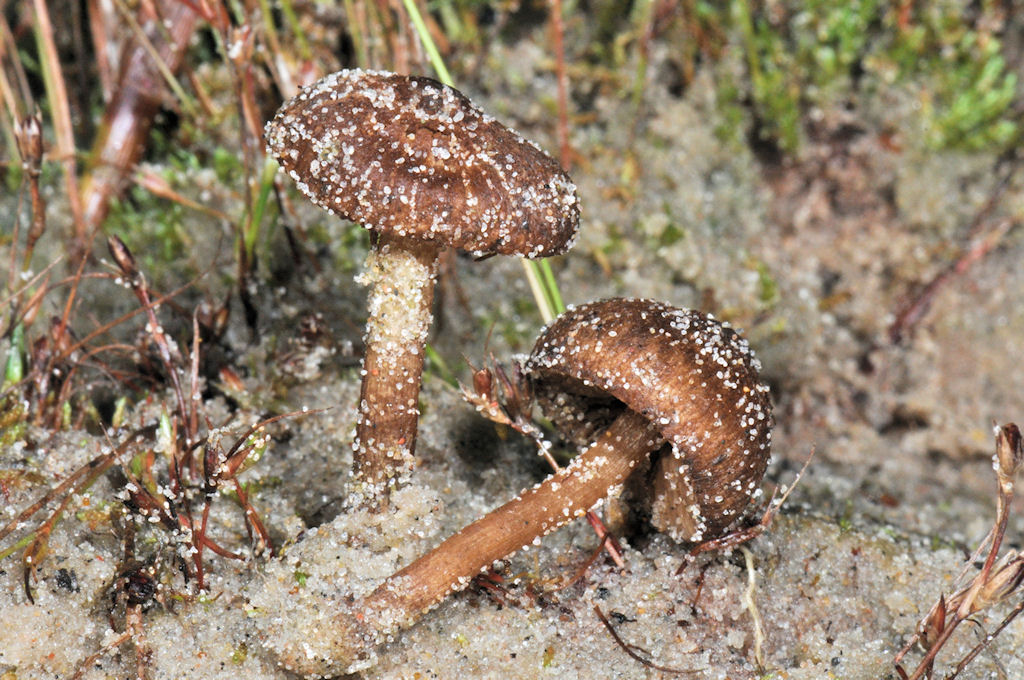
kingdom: Fungi
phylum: Basidiomycota
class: Agaricomycetes
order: Agaricales
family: Inocybaceae
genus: Inocybe
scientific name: Inocybe
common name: trævlhat
